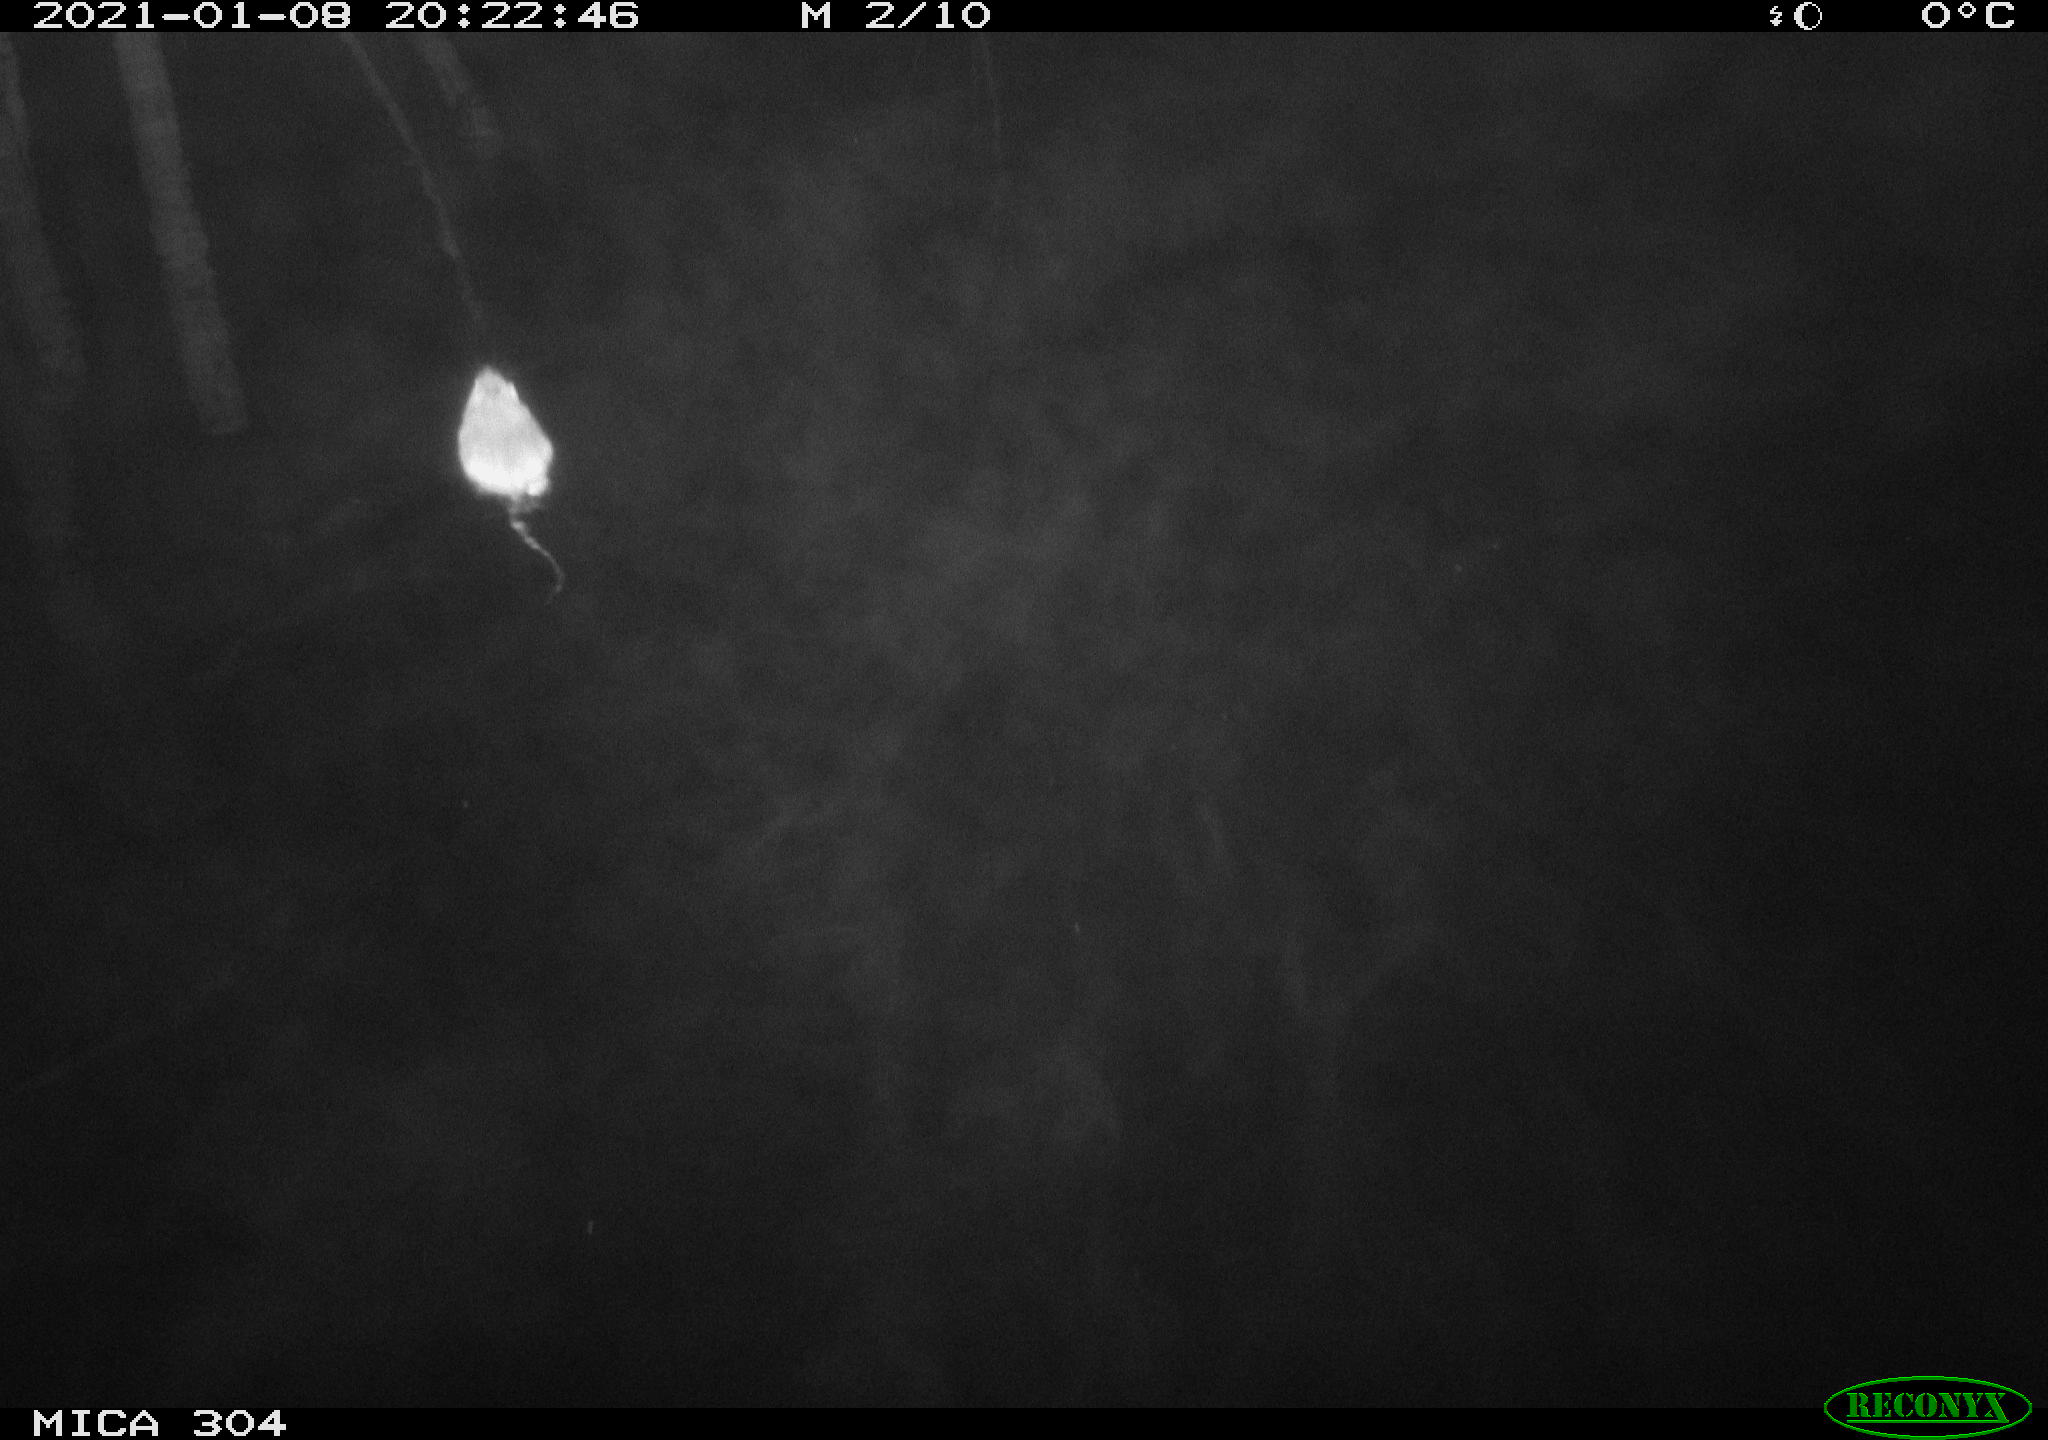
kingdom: Animalia
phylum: Chordata
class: Mammalia
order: Rodentia
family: Muridae
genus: Rattus
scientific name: Rattus norvegicus
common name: Brown rat
